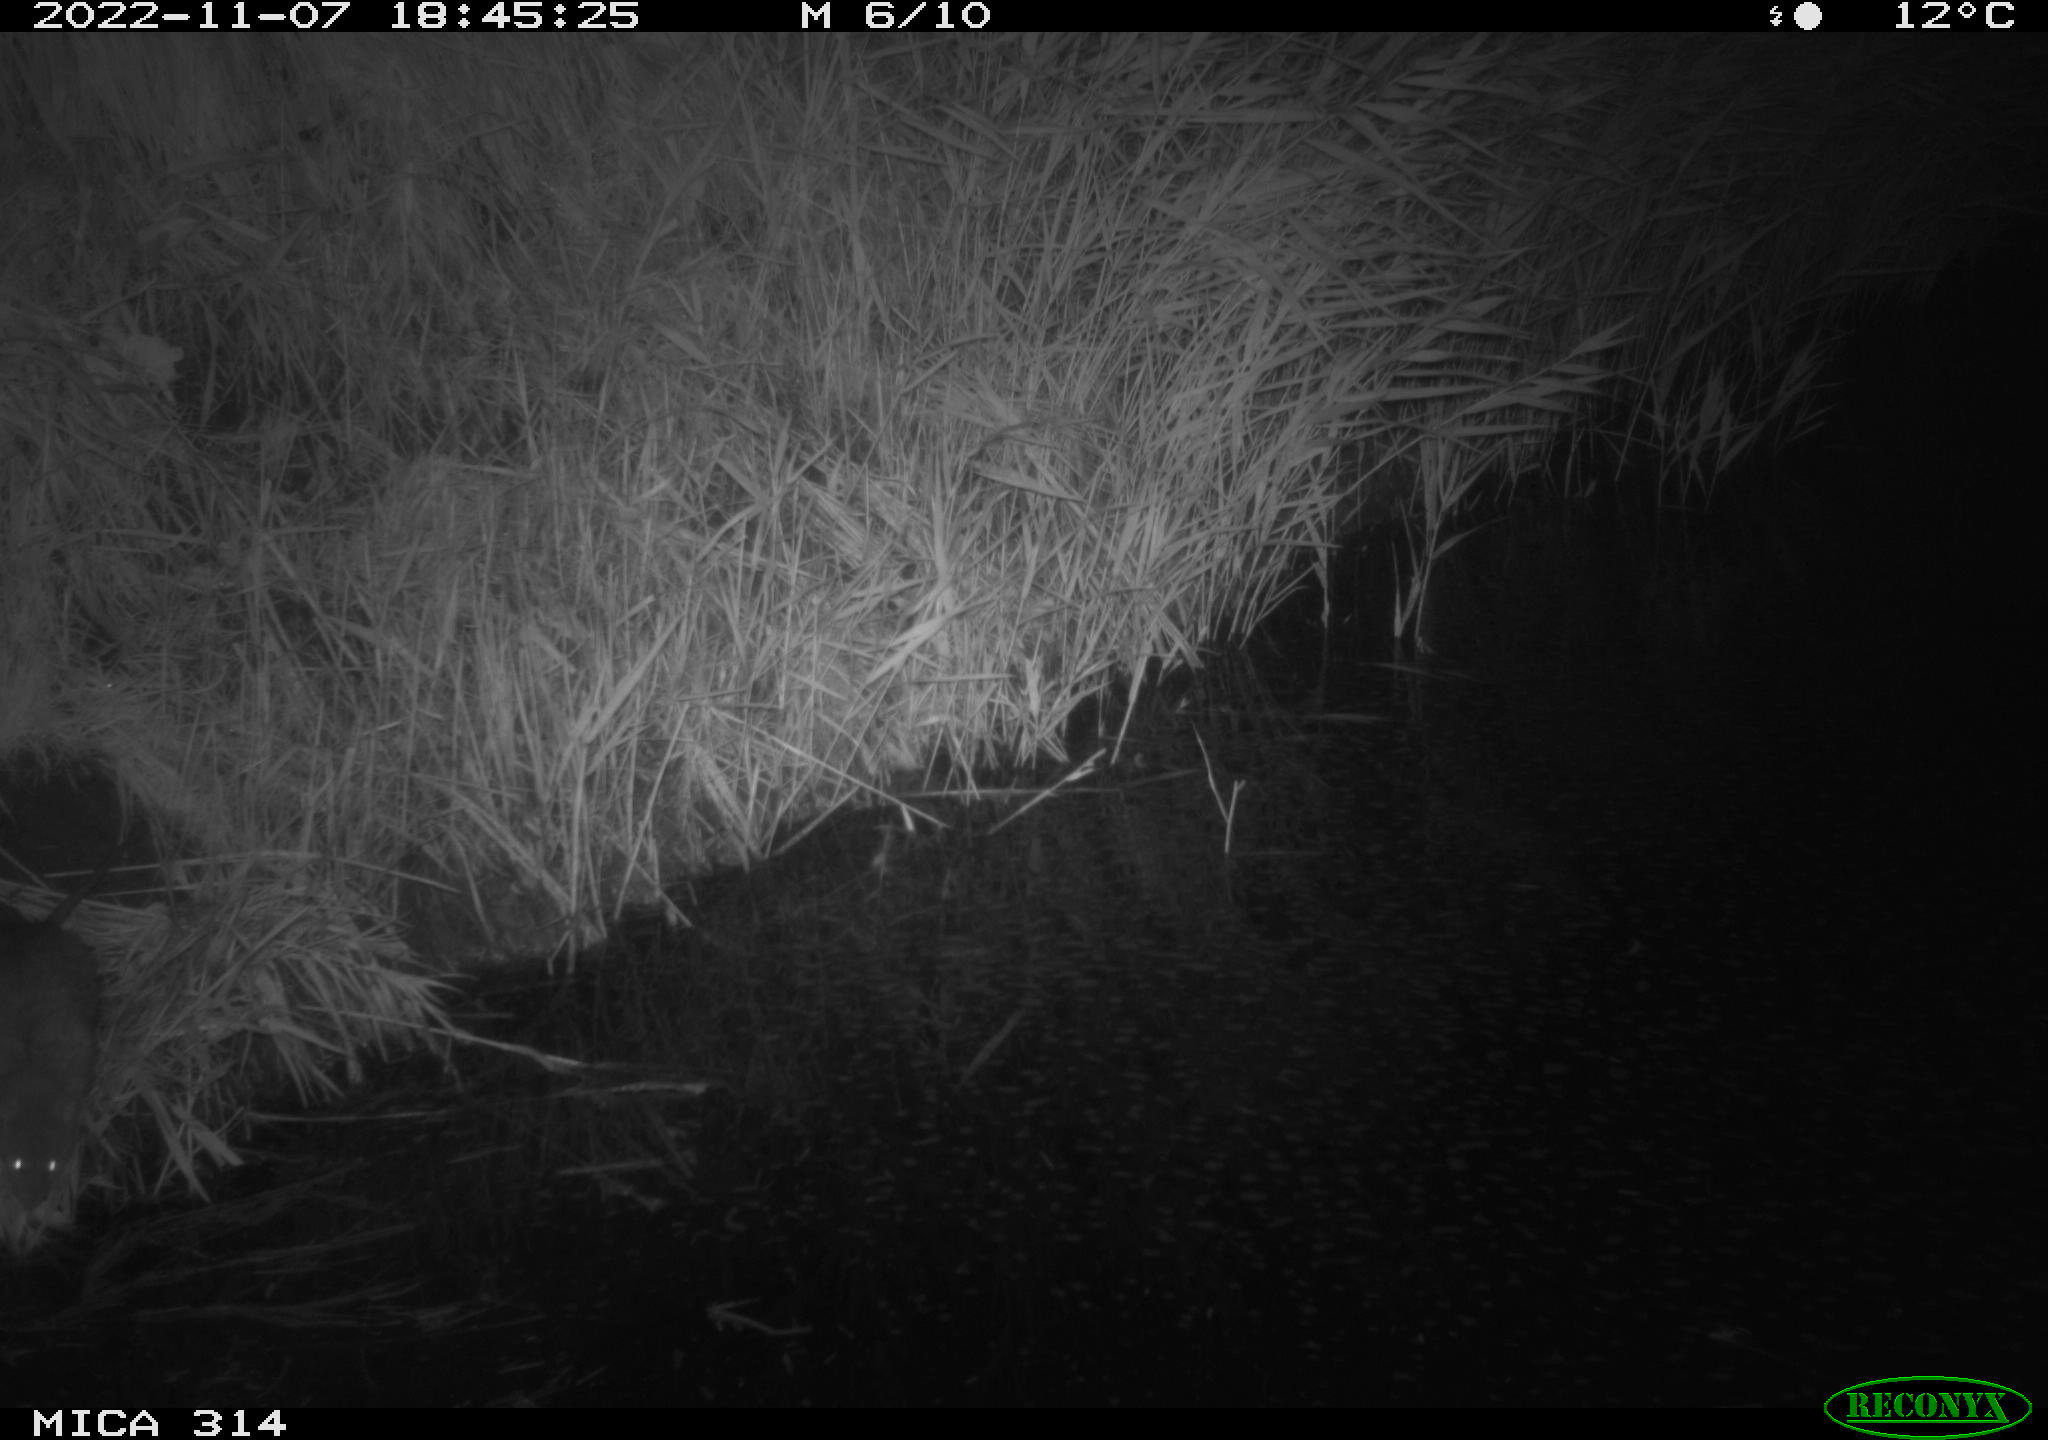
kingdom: Animalia
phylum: Chordata
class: Mammalia
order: Rodentia
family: Cricetidae
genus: Ondatra
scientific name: Ondatra zibethicus
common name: Muskrat
